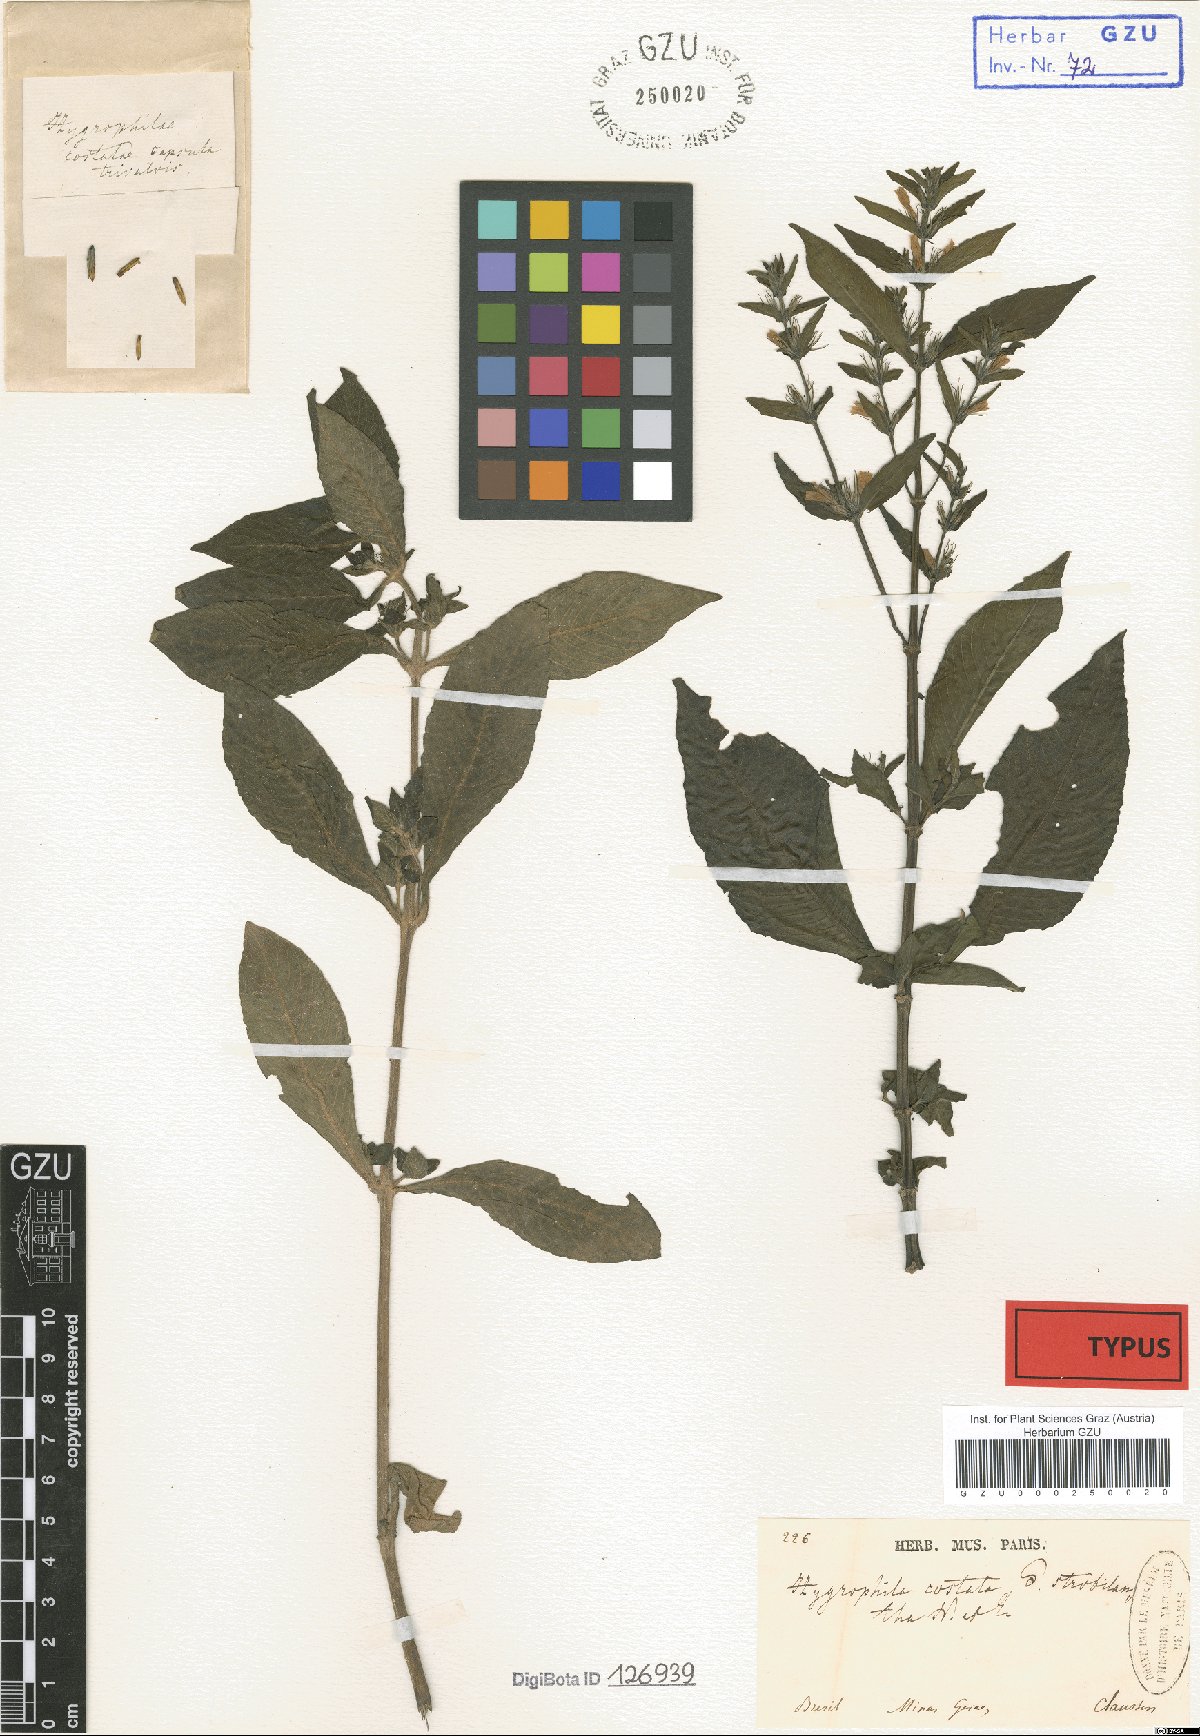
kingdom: Plantae
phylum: Tracheophyta
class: Magnoliopsida
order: Lamiales
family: Acanthaceae
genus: Hygrophila
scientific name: Hygrophila costata
